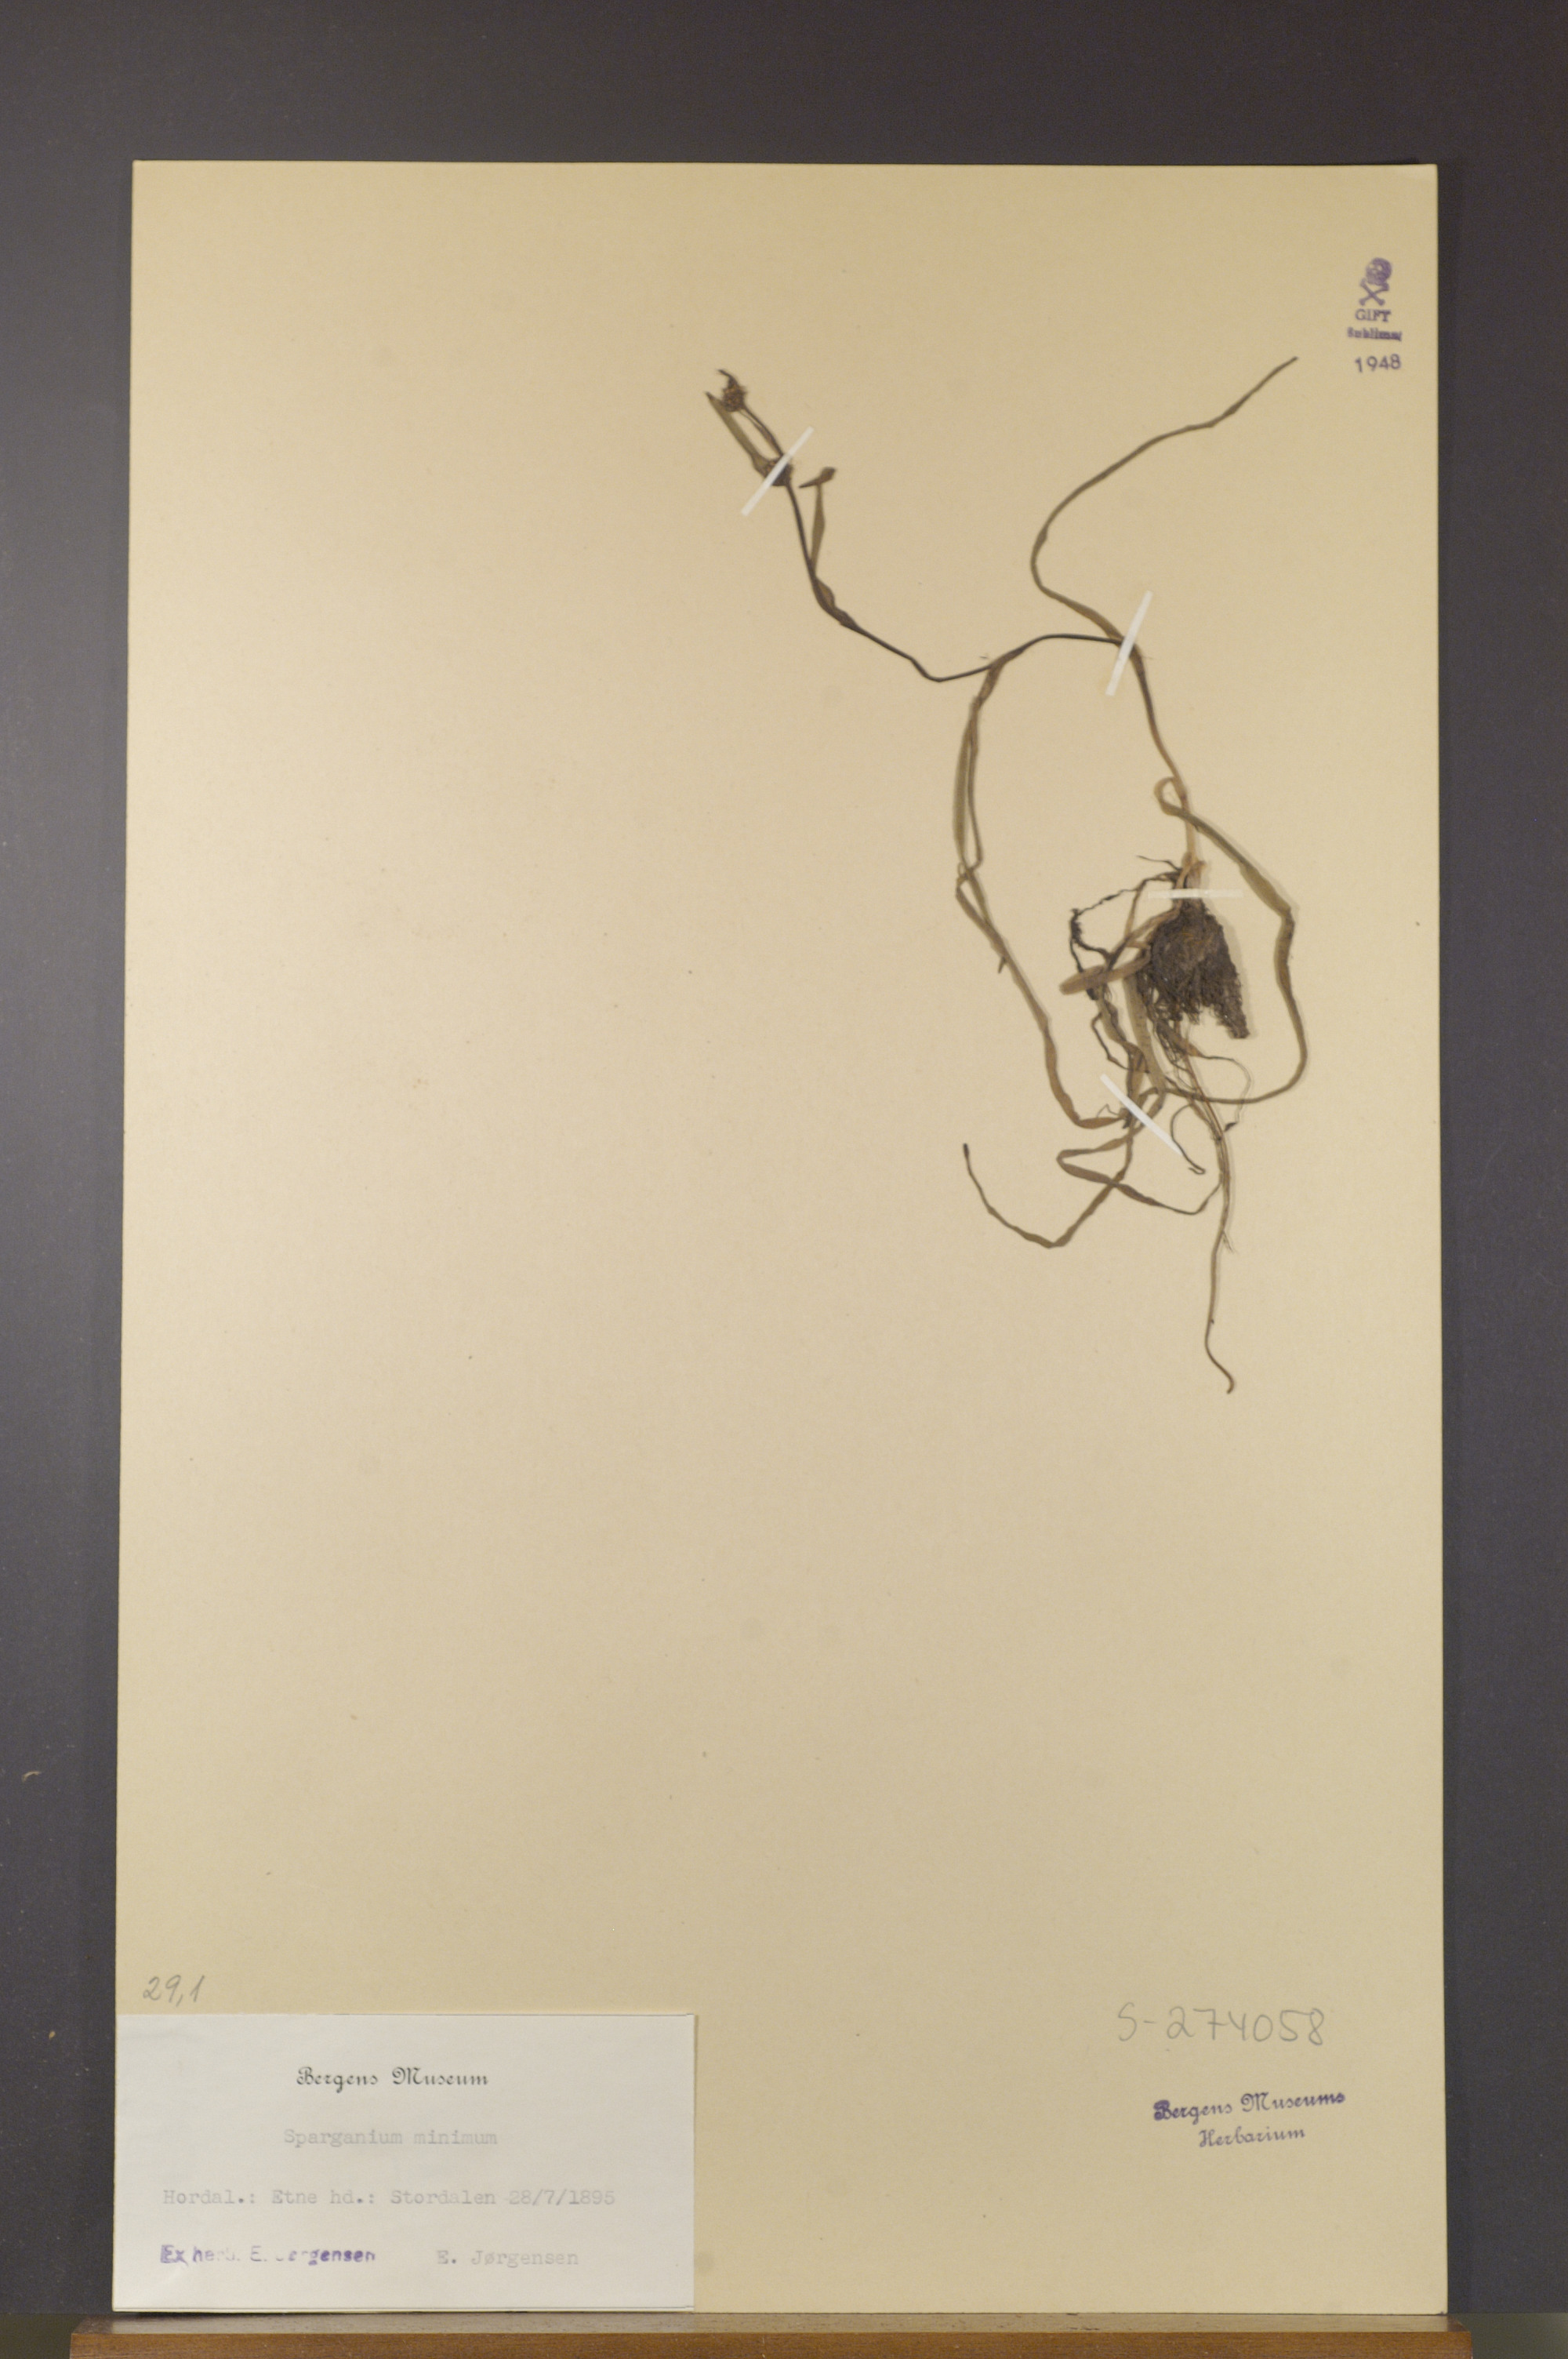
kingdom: Plantae
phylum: Tracheophyta
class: Liliopsida
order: Poales
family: Typhaceae
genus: Sparganium
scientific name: Sparganium natans
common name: Least bur-reed
